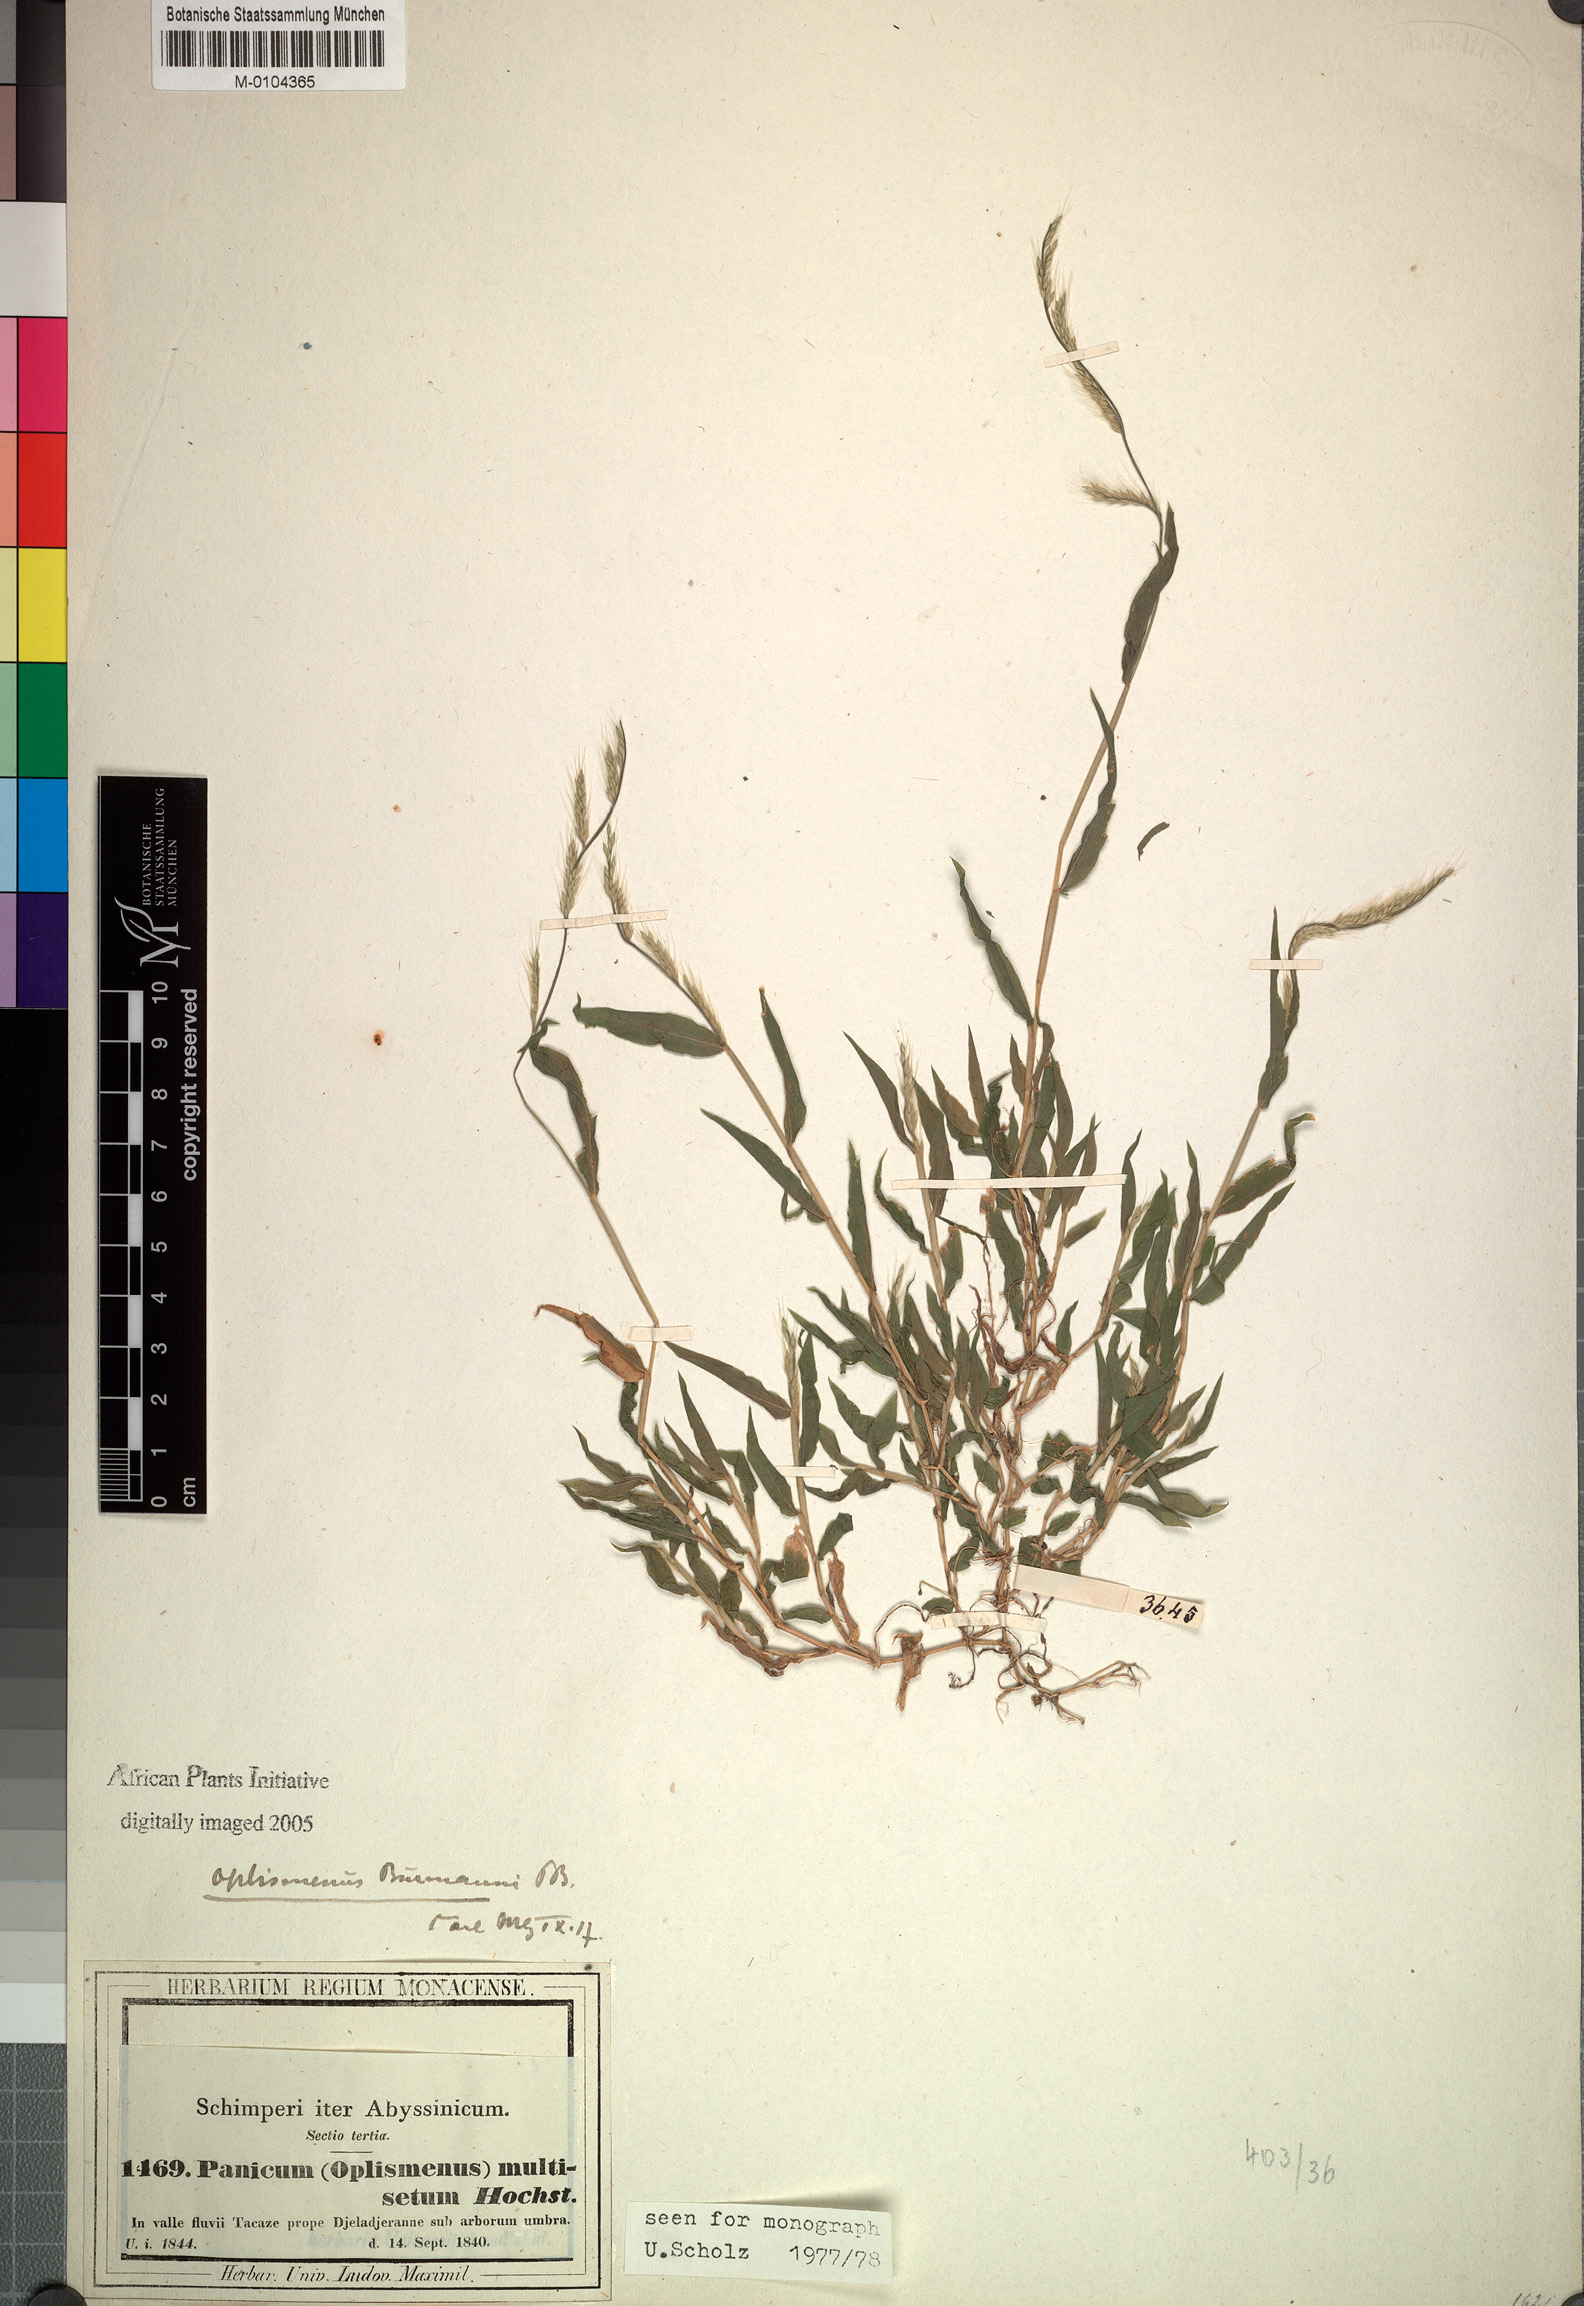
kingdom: Plantae
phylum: Tracheophyta
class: Liliopsida
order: Poales
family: Poaceae
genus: Oplismenus
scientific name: Oplismenus burmanni
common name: Burmann's basketgrass
